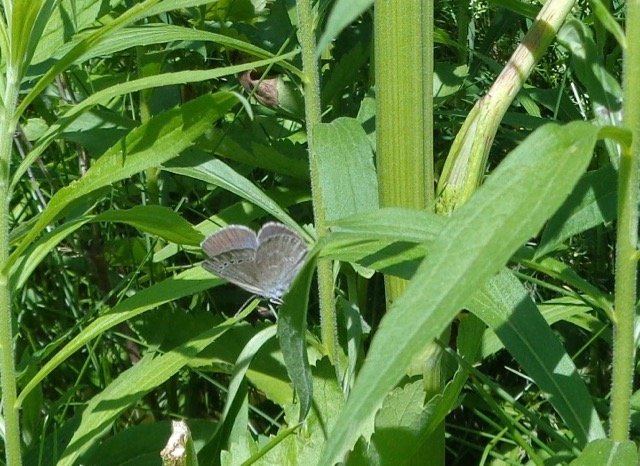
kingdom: Animalia
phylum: Arthropoda
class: Insecta
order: Lepidoptera
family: Lycaenidae
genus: Glaucopsyche
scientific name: Glaucopsyche lygdamus
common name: Silvery Blue
